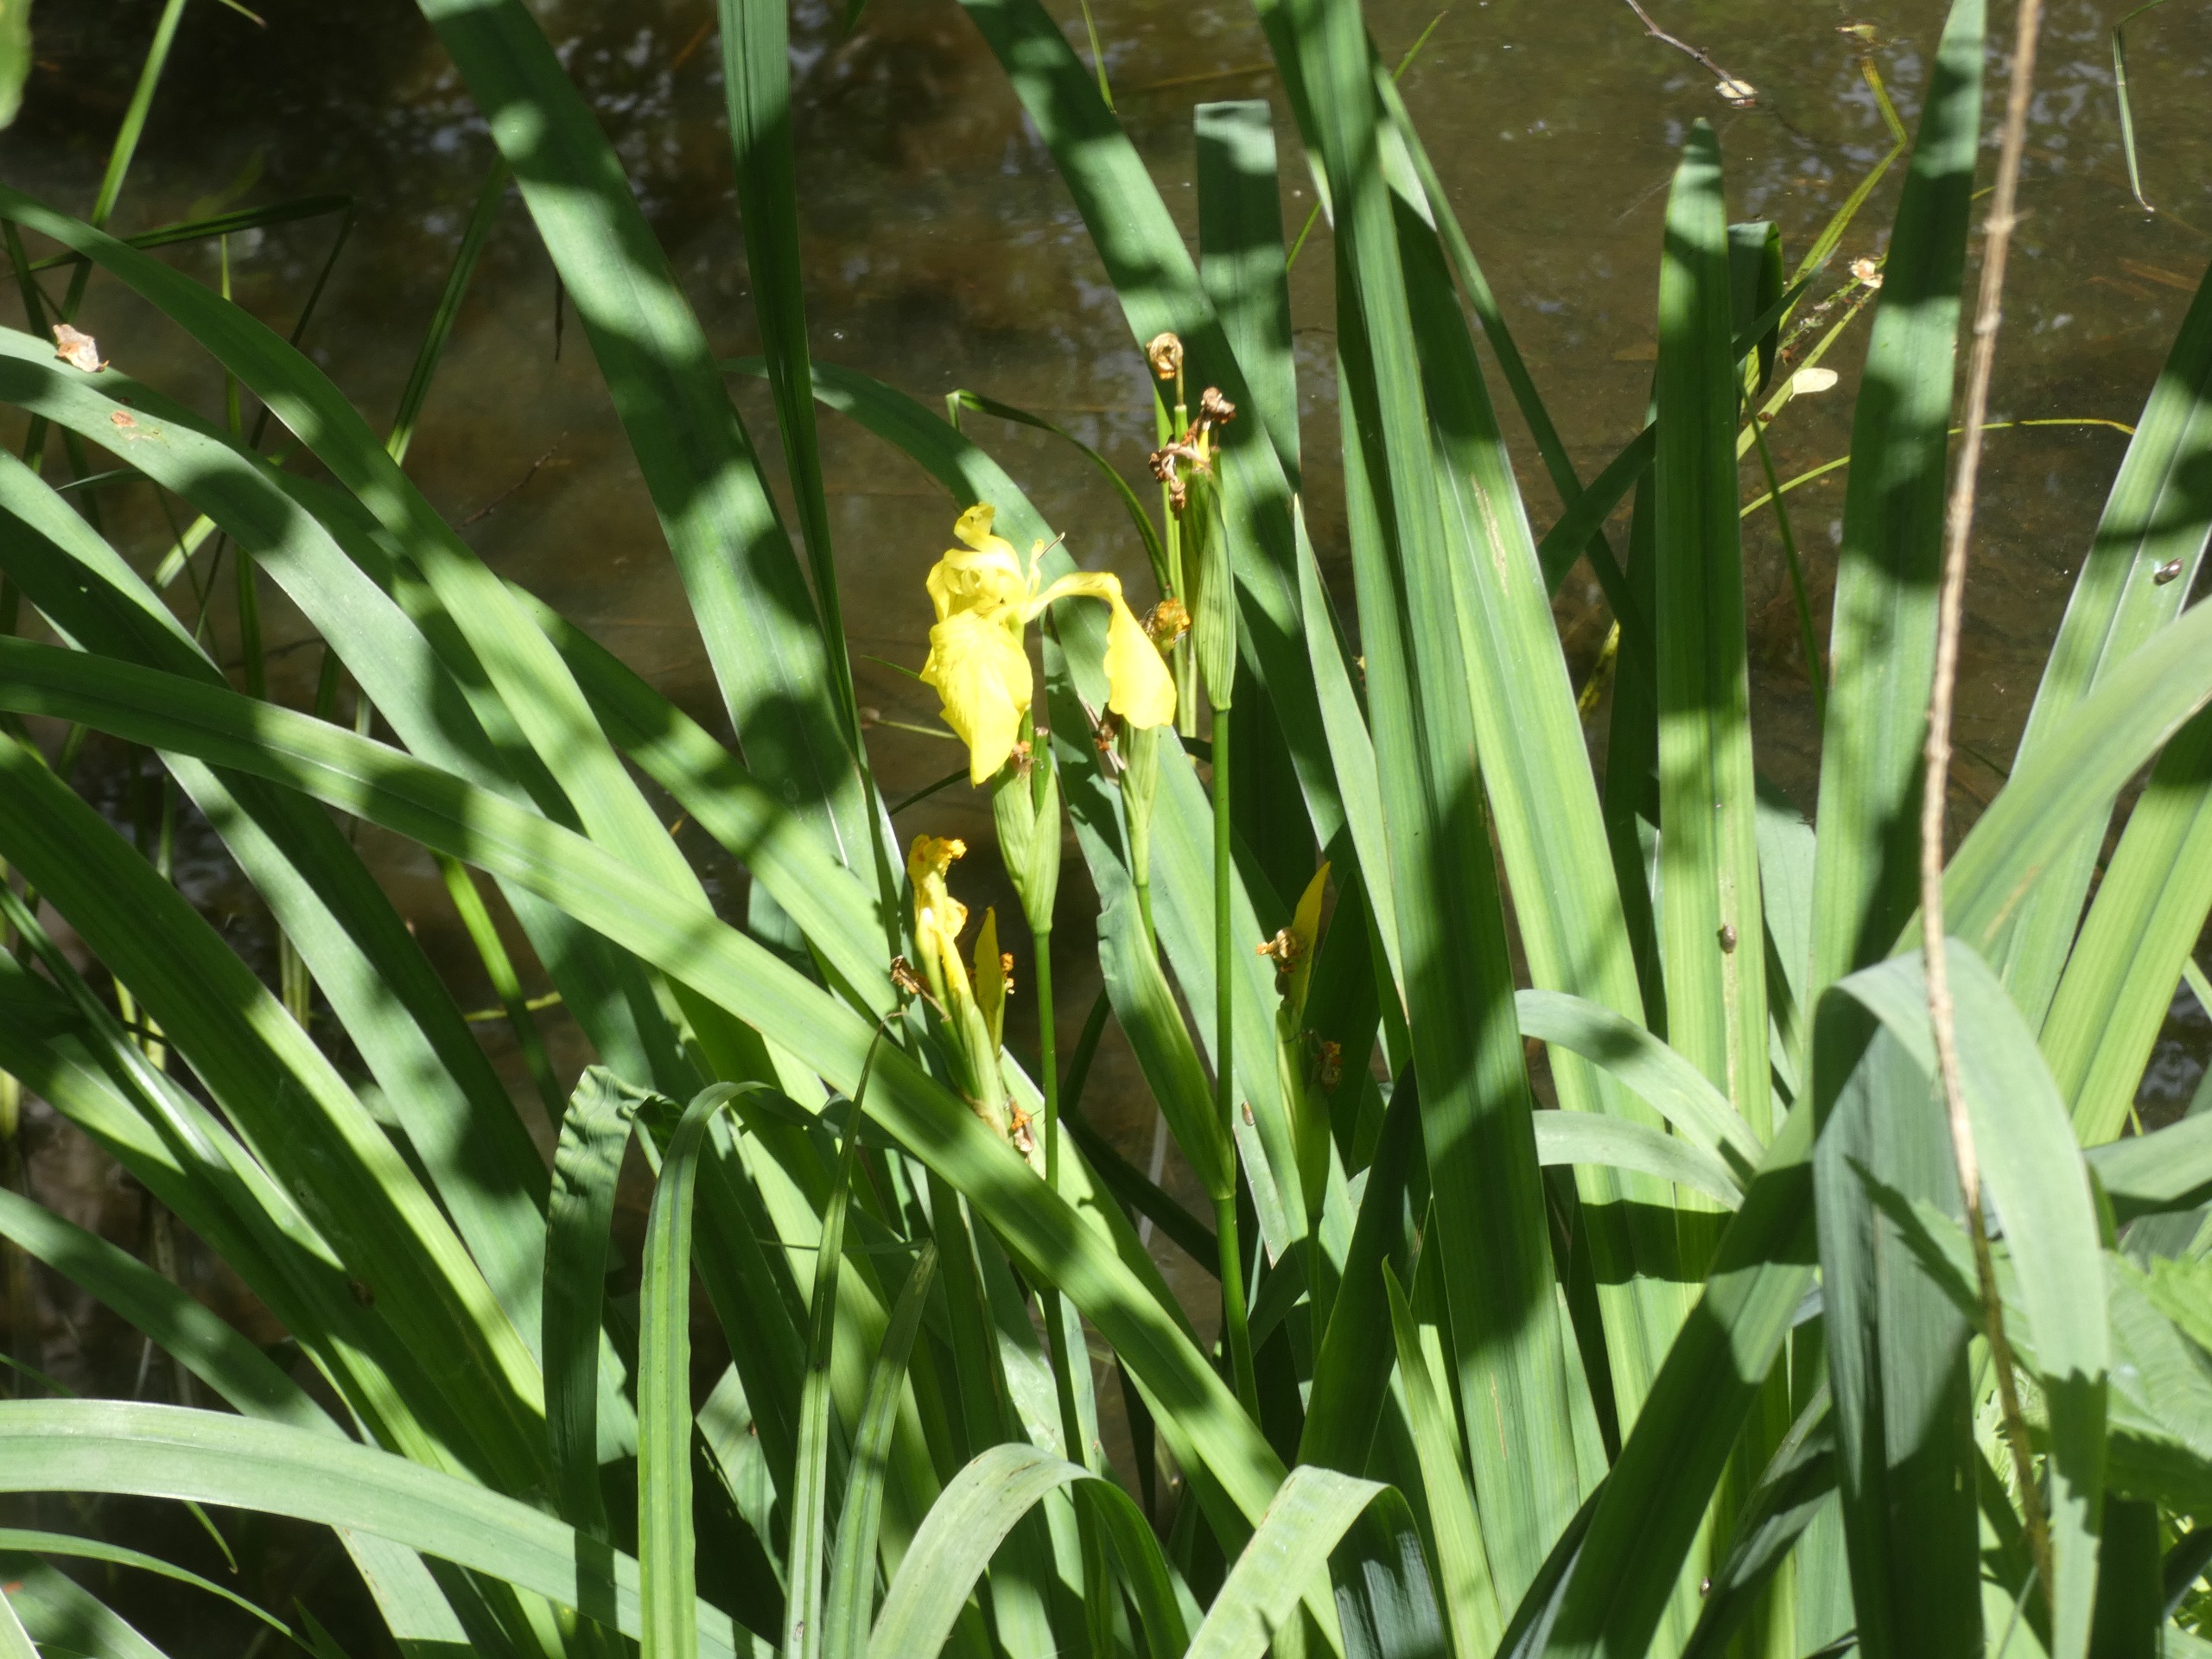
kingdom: Plantae
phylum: Tracheophyta
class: Liliopsida
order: Asparagales
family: Iridaceae
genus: Iris
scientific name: Iris pseudacorus
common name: Gul iris
